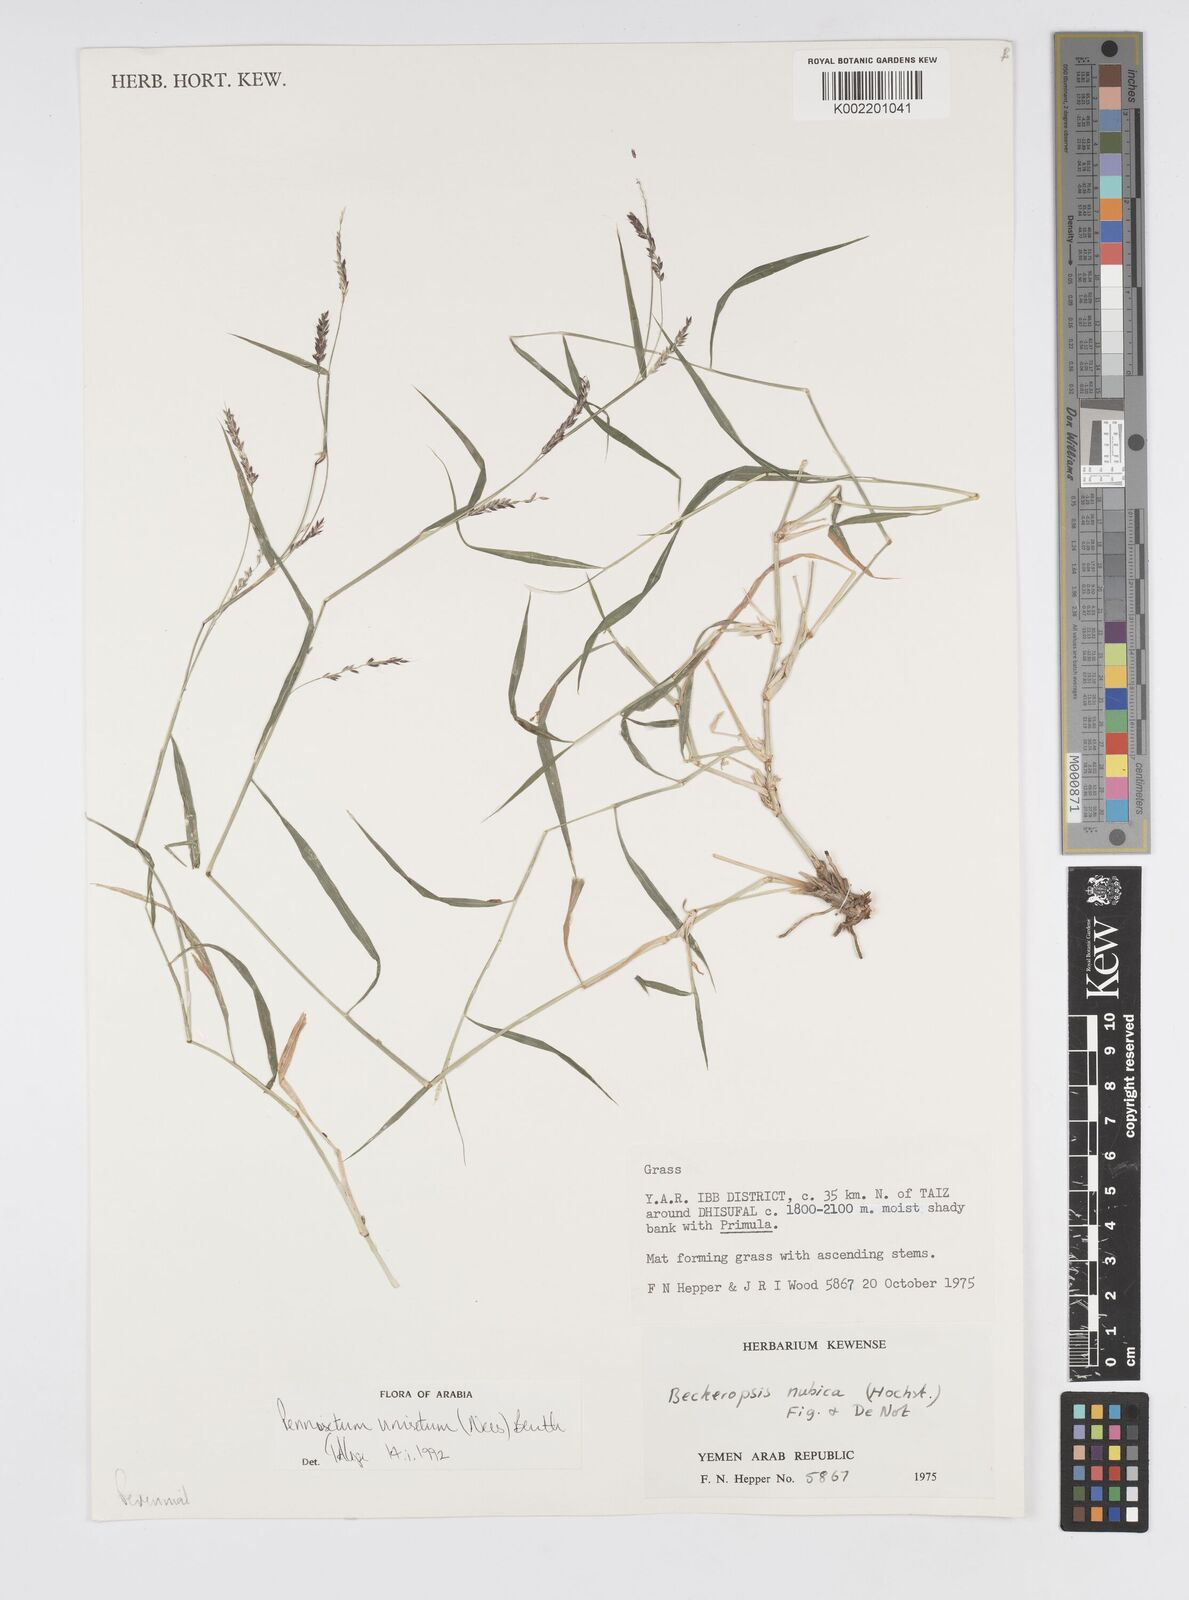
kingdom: Plantae
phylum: Tracheophyta
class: Liliopsida
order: Poales
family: Poaceae
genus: Cenchrus
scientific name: Cenchrus unisetus
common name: Natal grass
